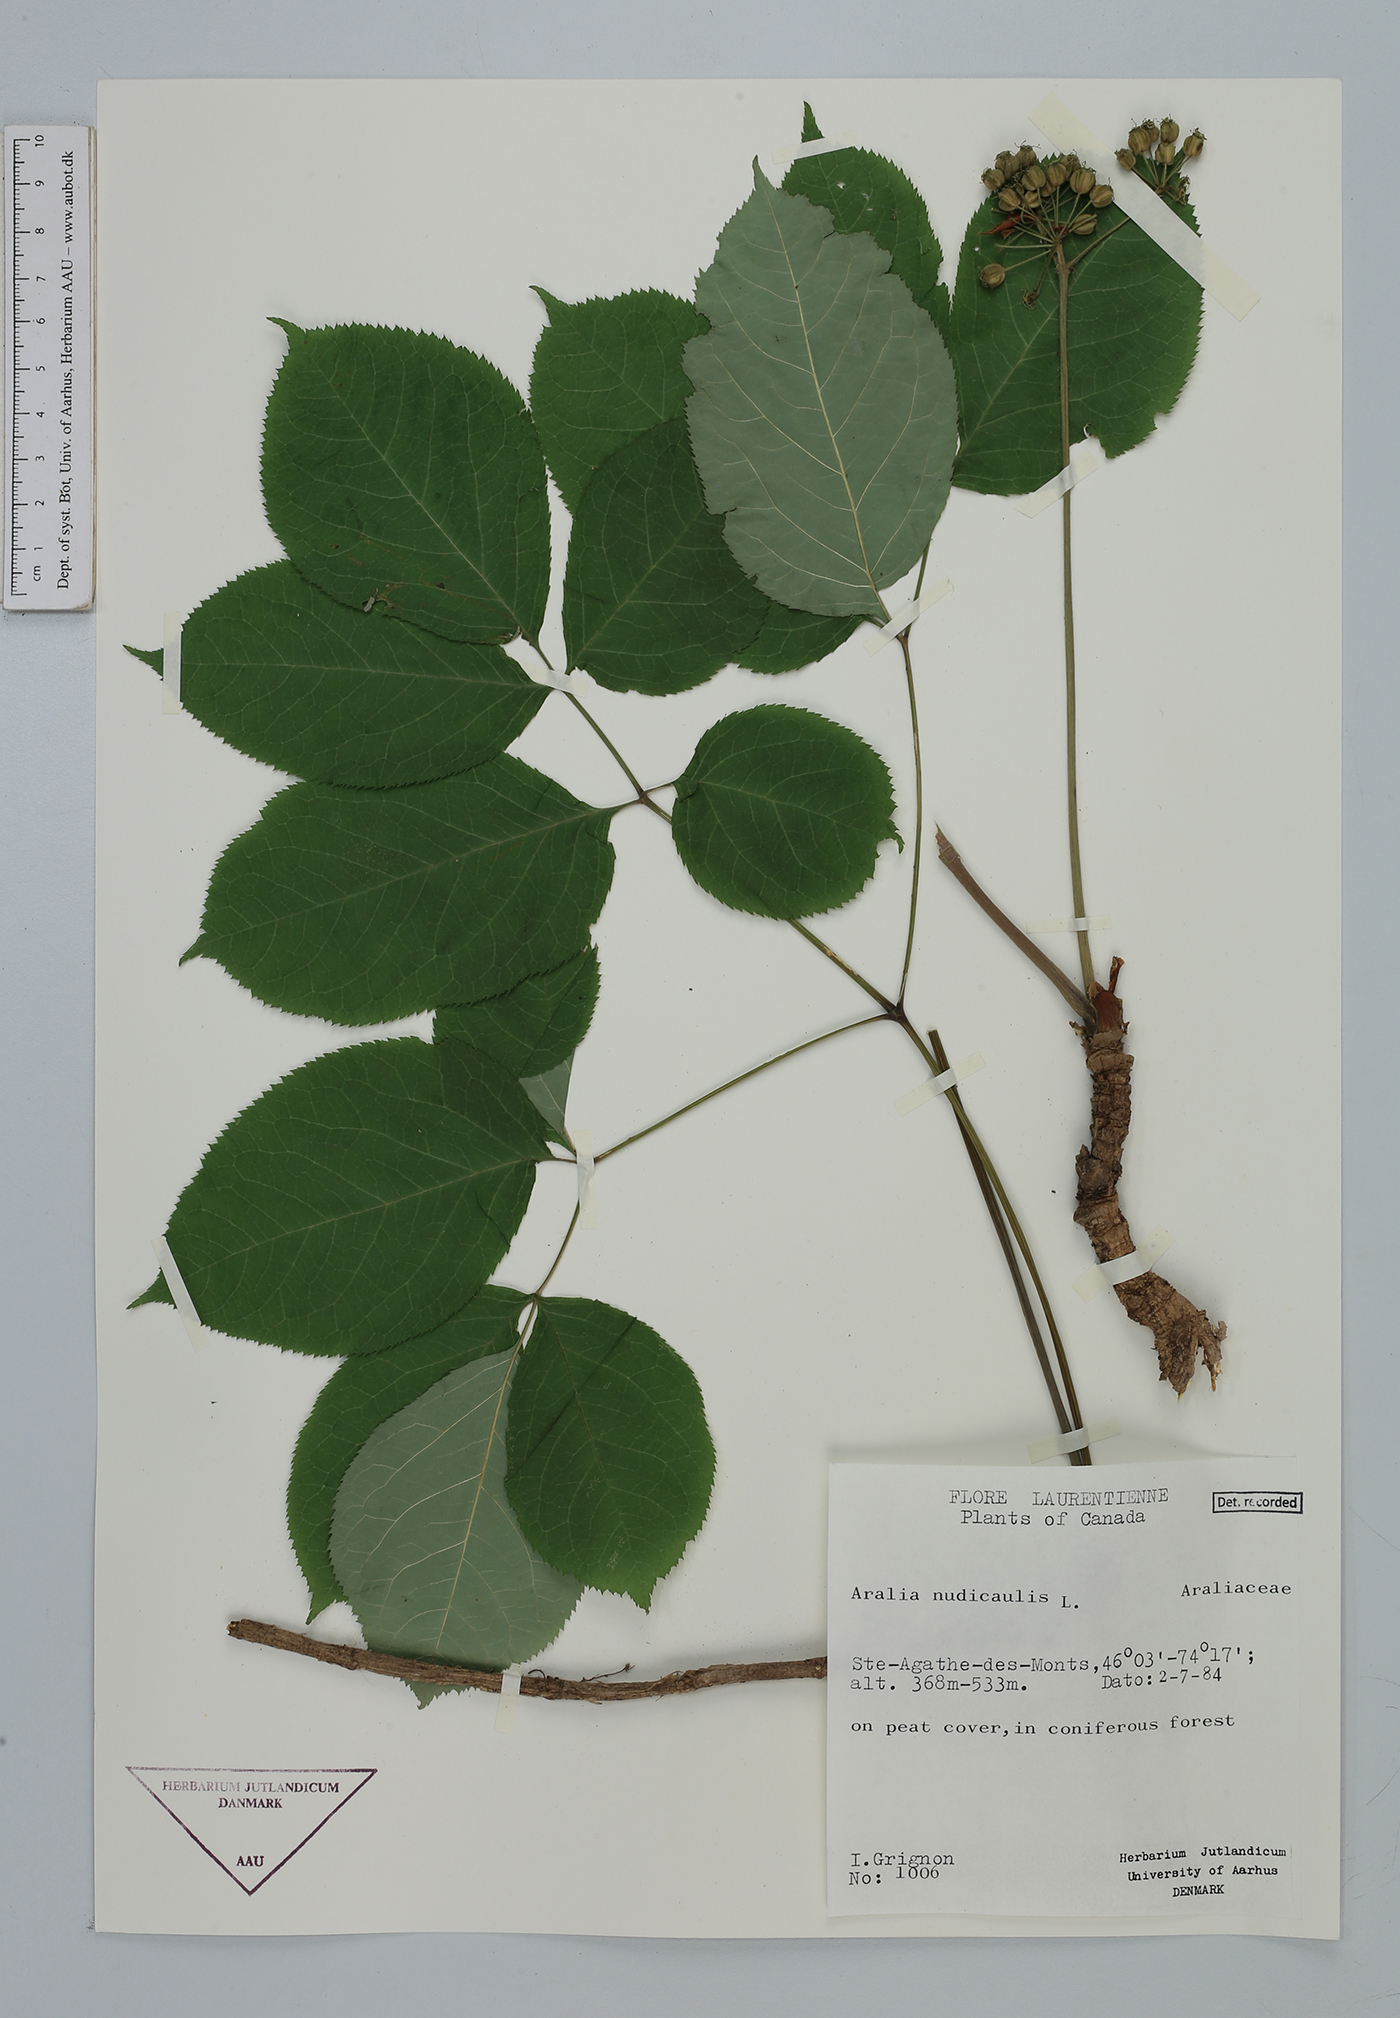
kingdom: Plantae
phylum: Tracheophyta
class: Magnoliopsida
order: Apiales
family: Araliaceae
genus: Aralia
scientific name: Aralia nudicaulis
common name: Wild sarsaparilla
